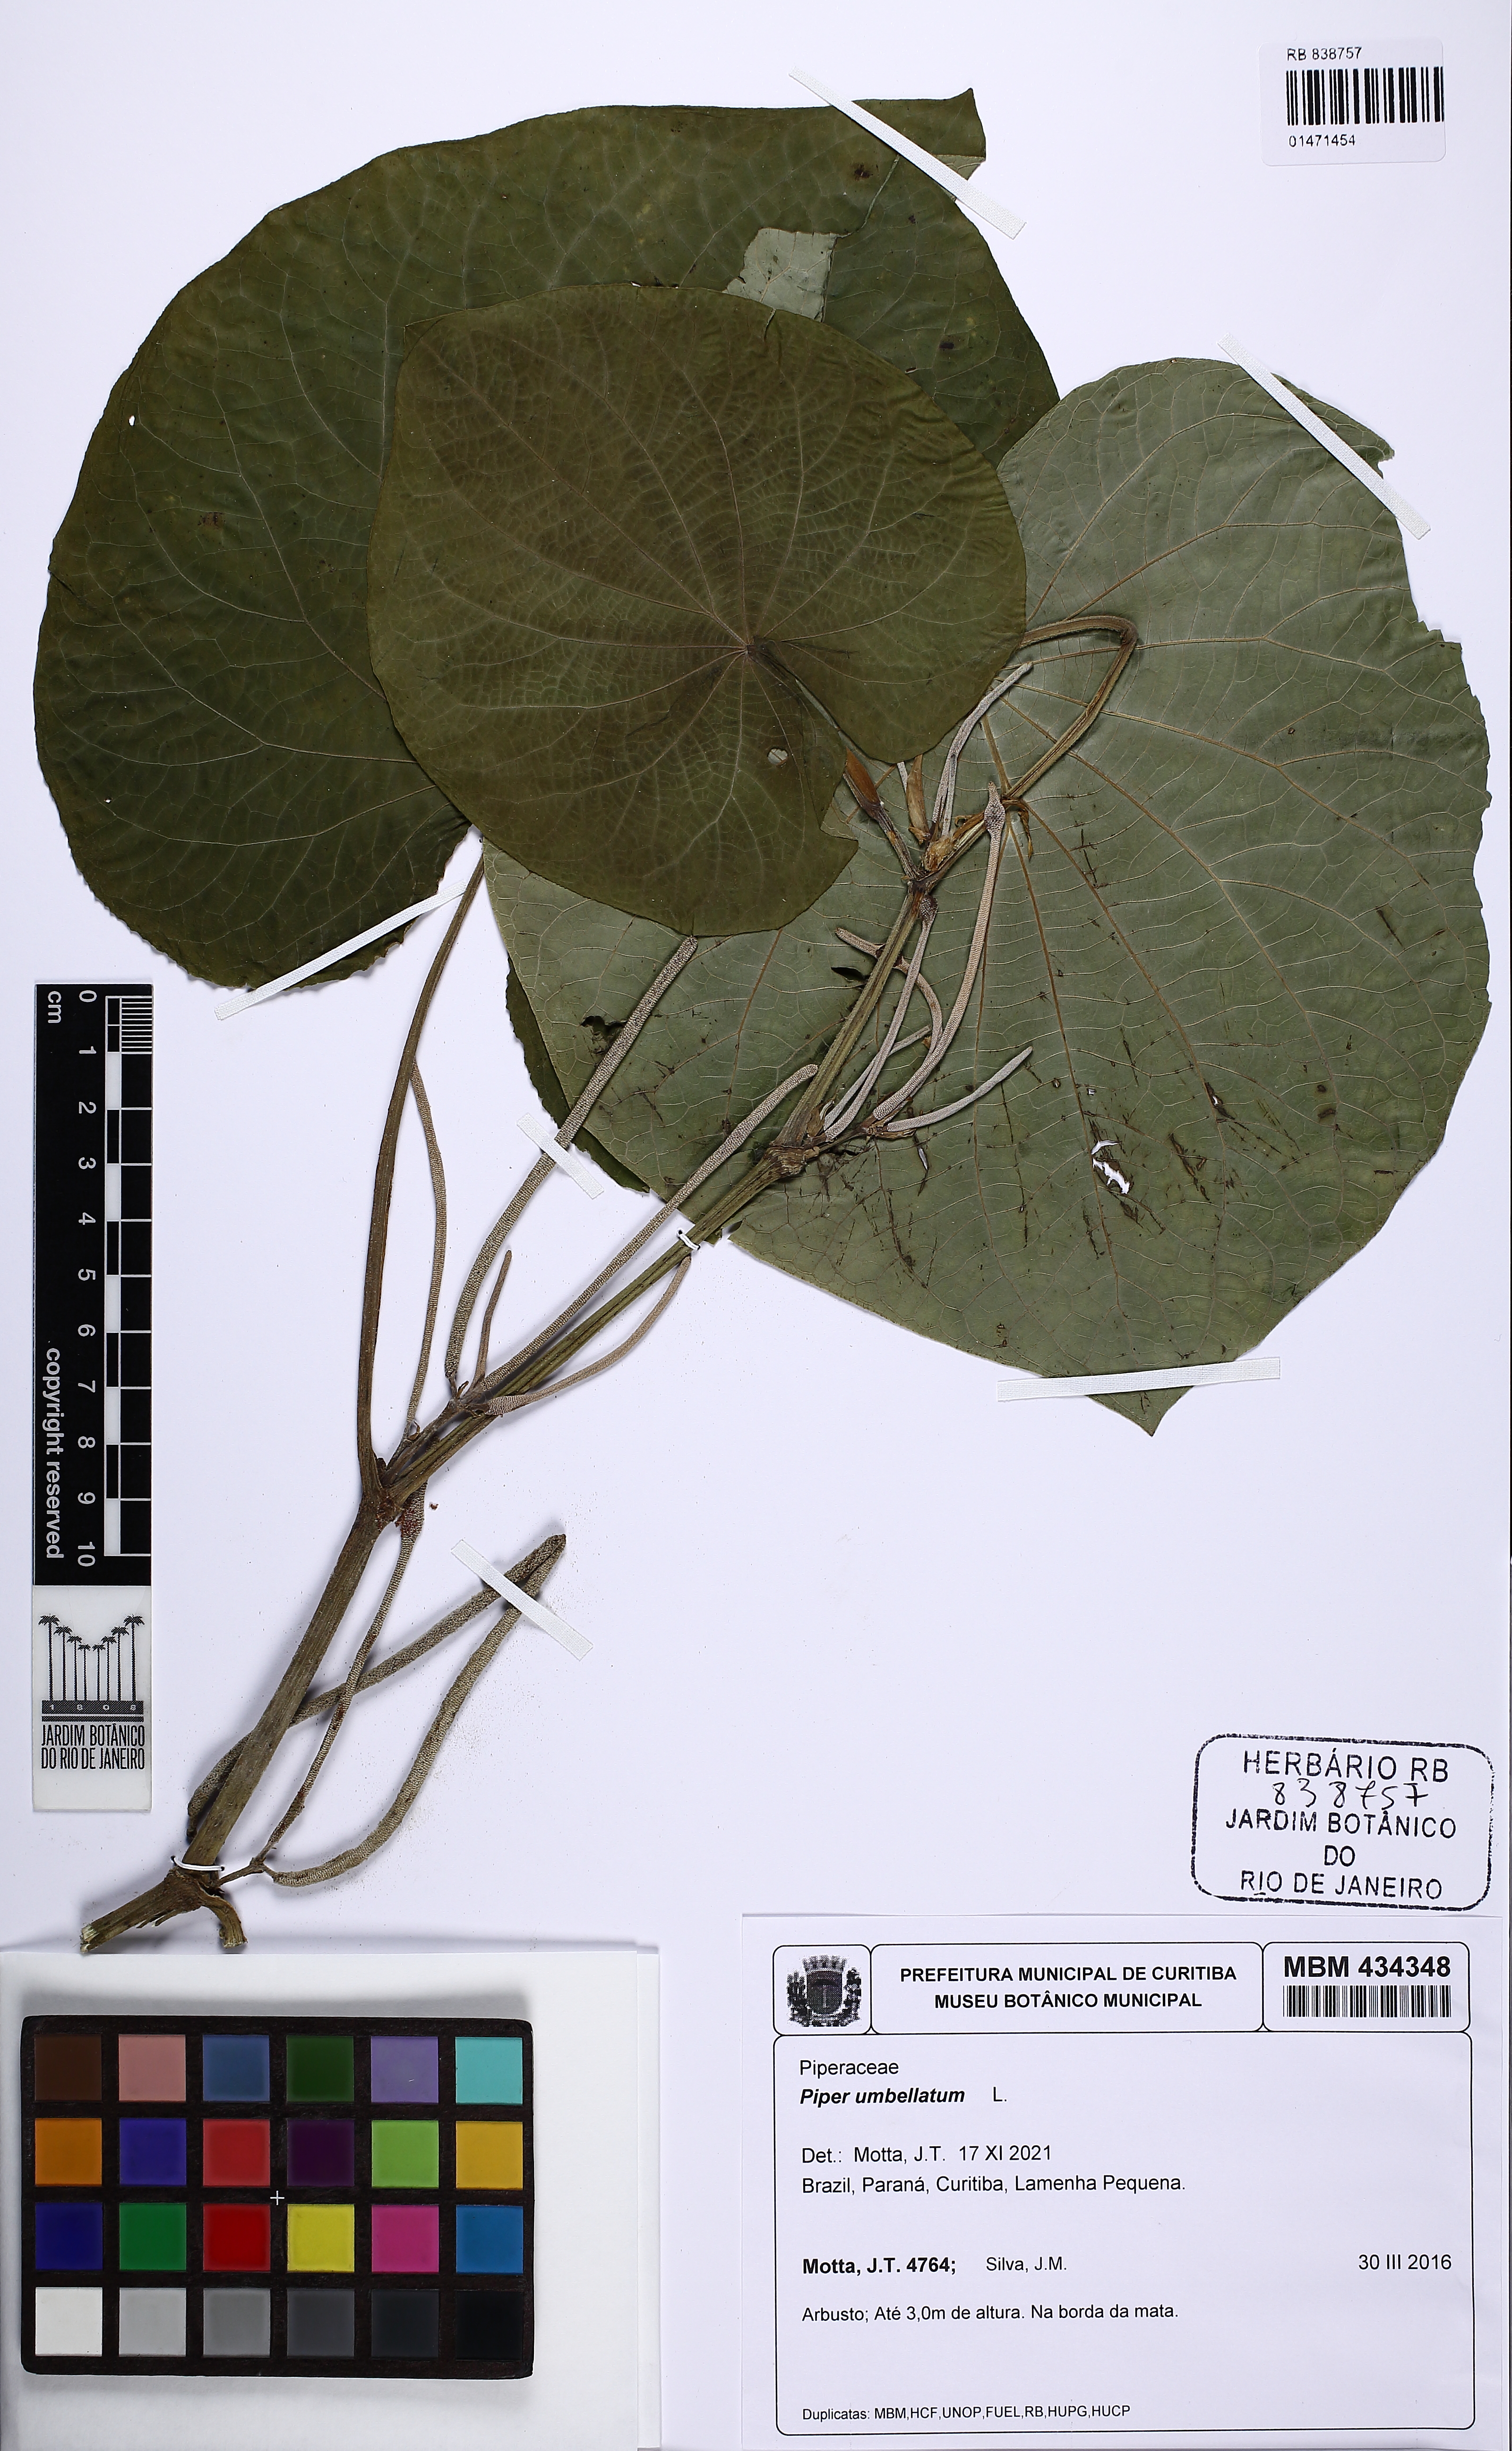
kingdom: Plantae
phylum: Tracheophyta
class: Magnoliopsida
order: Piperales
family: Piperaceae
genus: Piper
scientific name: Piper umbellatum
